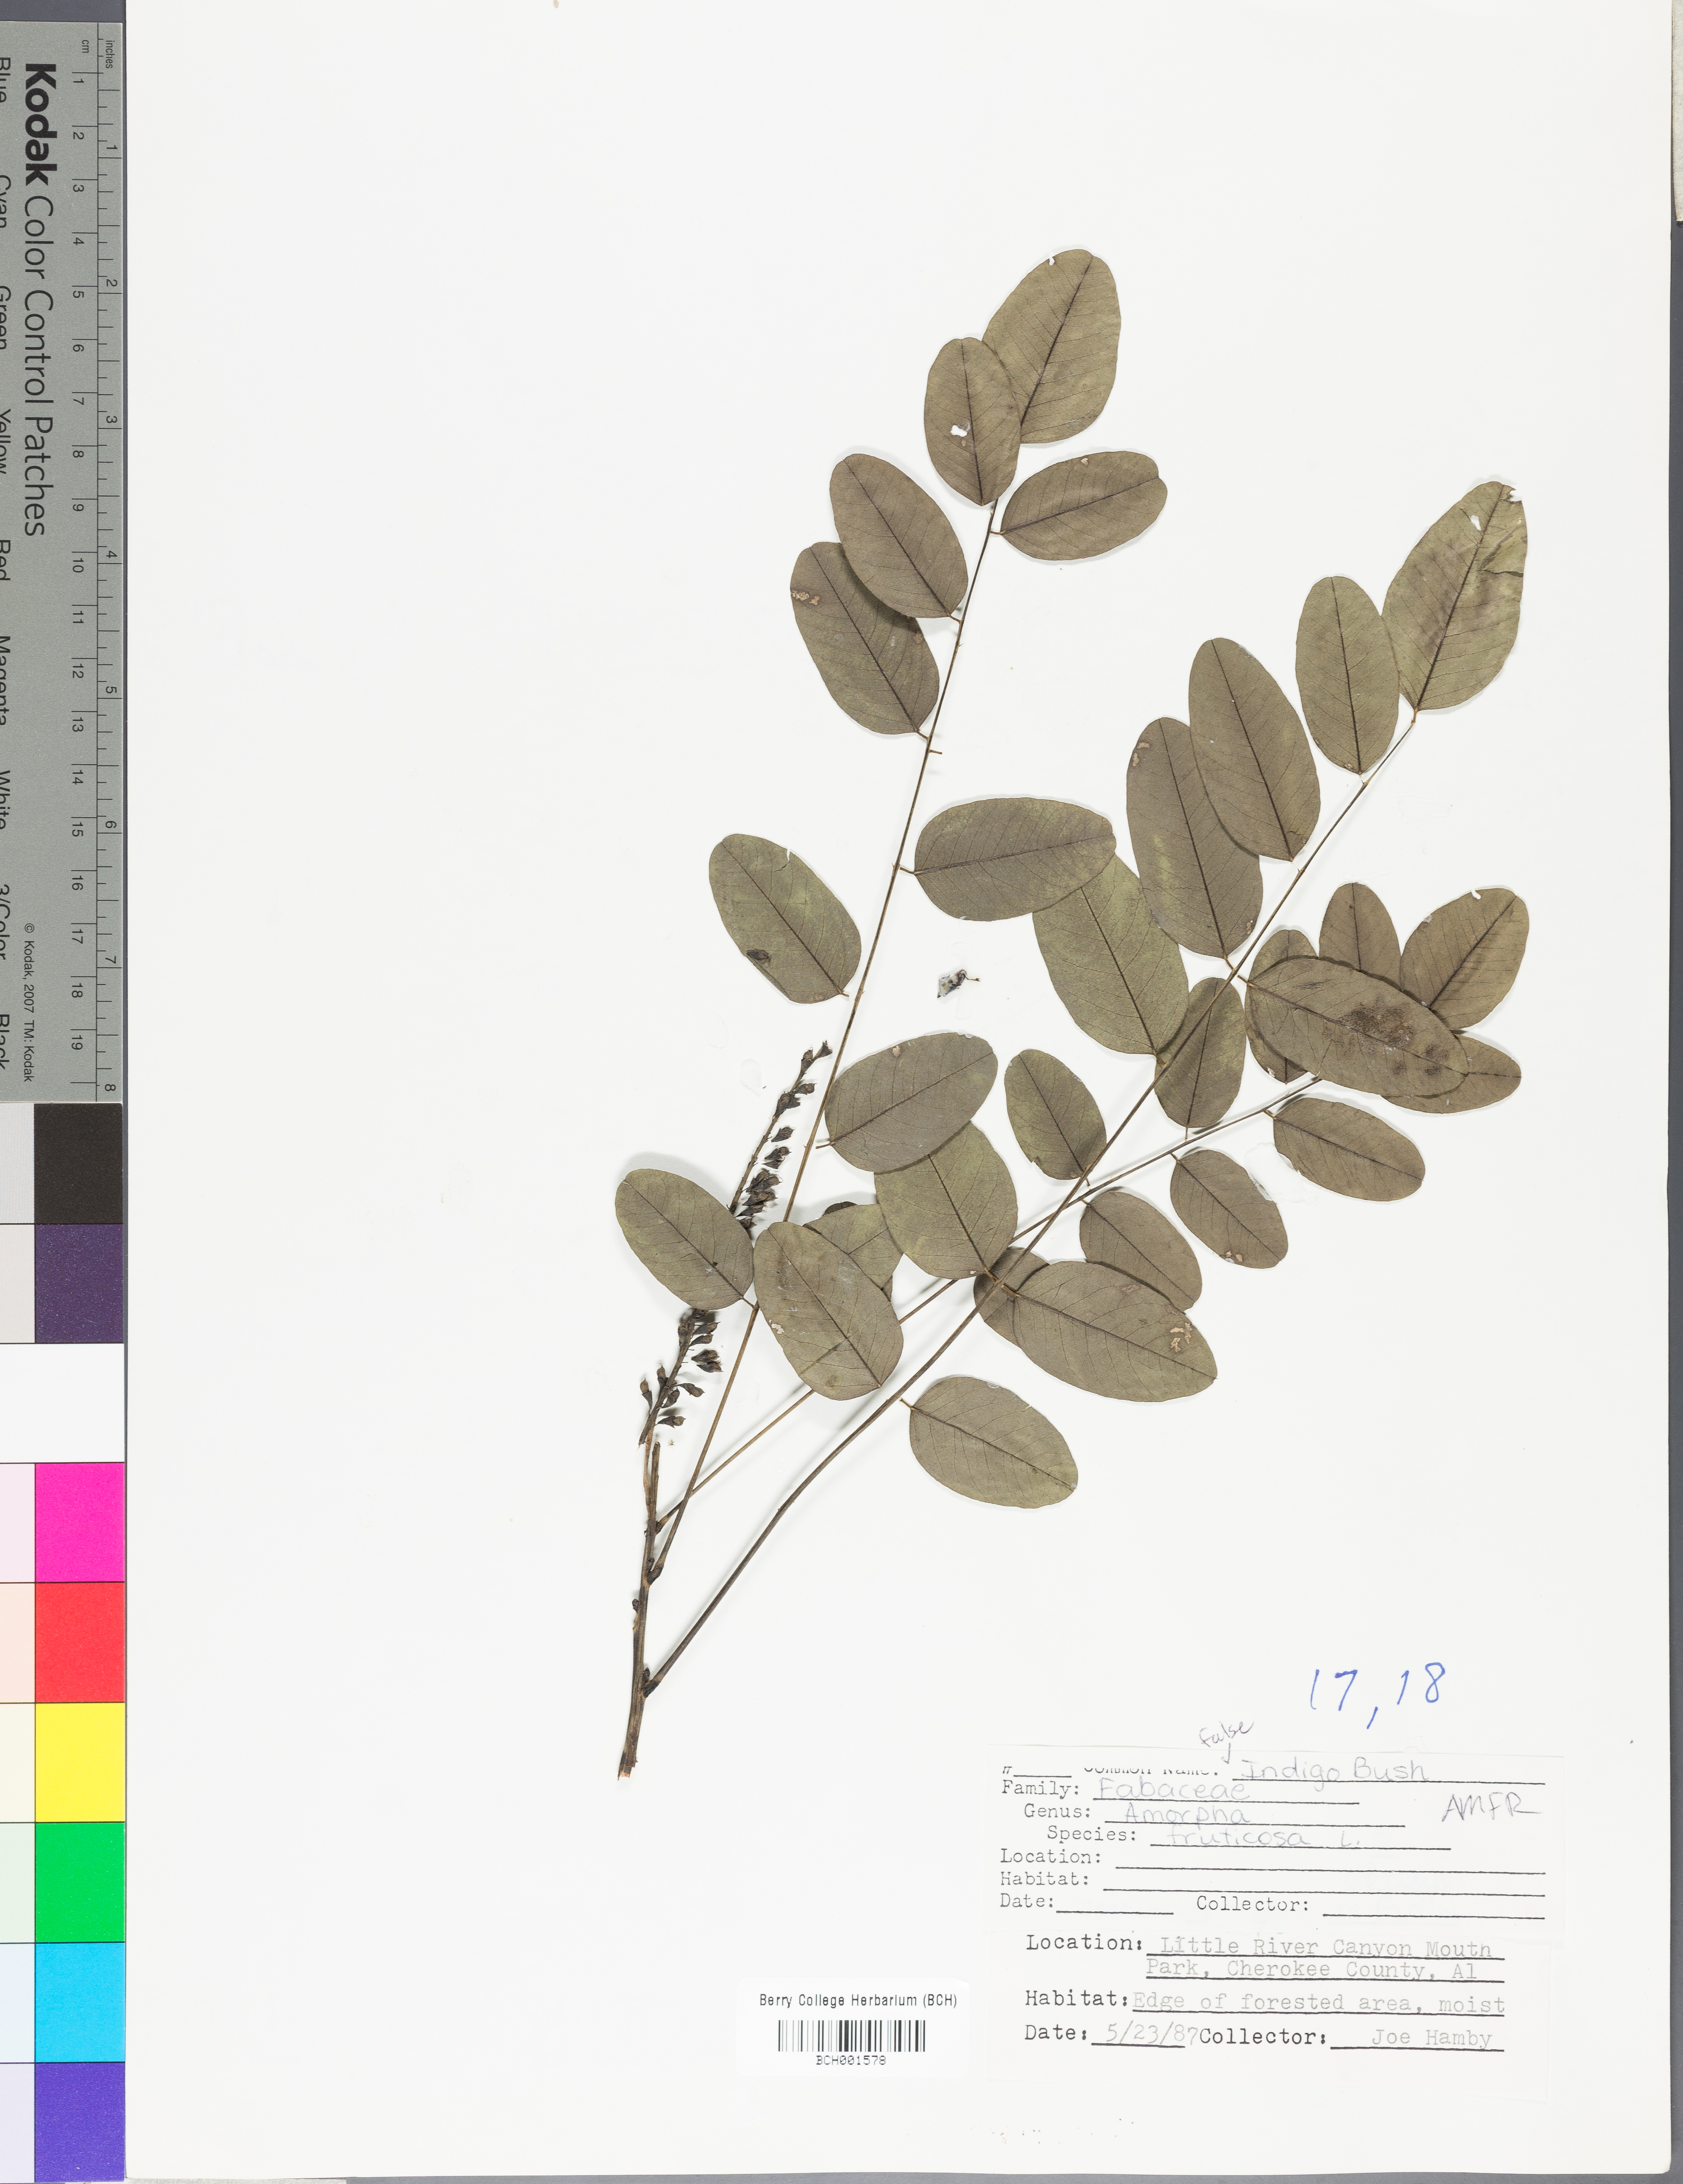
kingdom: Plantae
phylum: Tracheophyta
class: Magnoliopsida
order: Fabales
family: Fabaceae
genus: Amorpha
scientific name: Amorpha fruticosa
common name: False indigo
